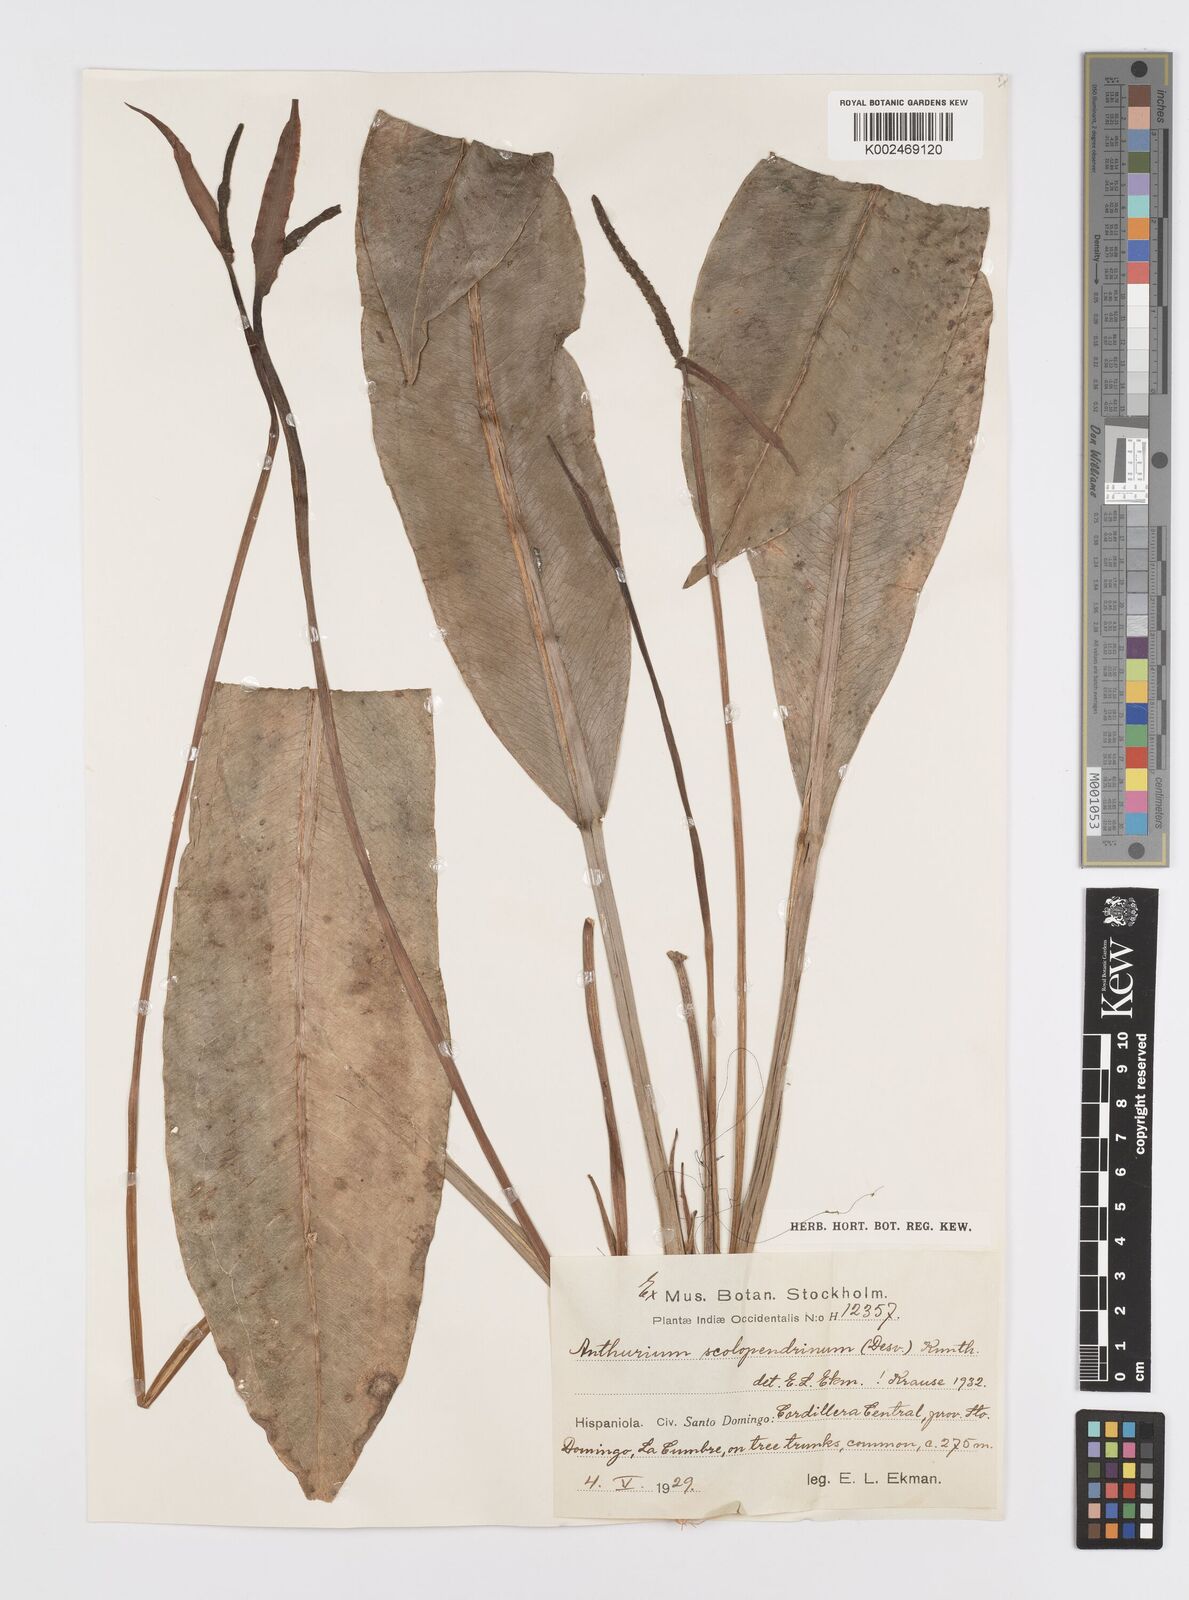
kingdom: Plantae
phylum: Tracheophyta
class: Liliopsida
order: Alismatales
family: Araceae
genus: Anthurium
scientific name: Anthurium gracile
